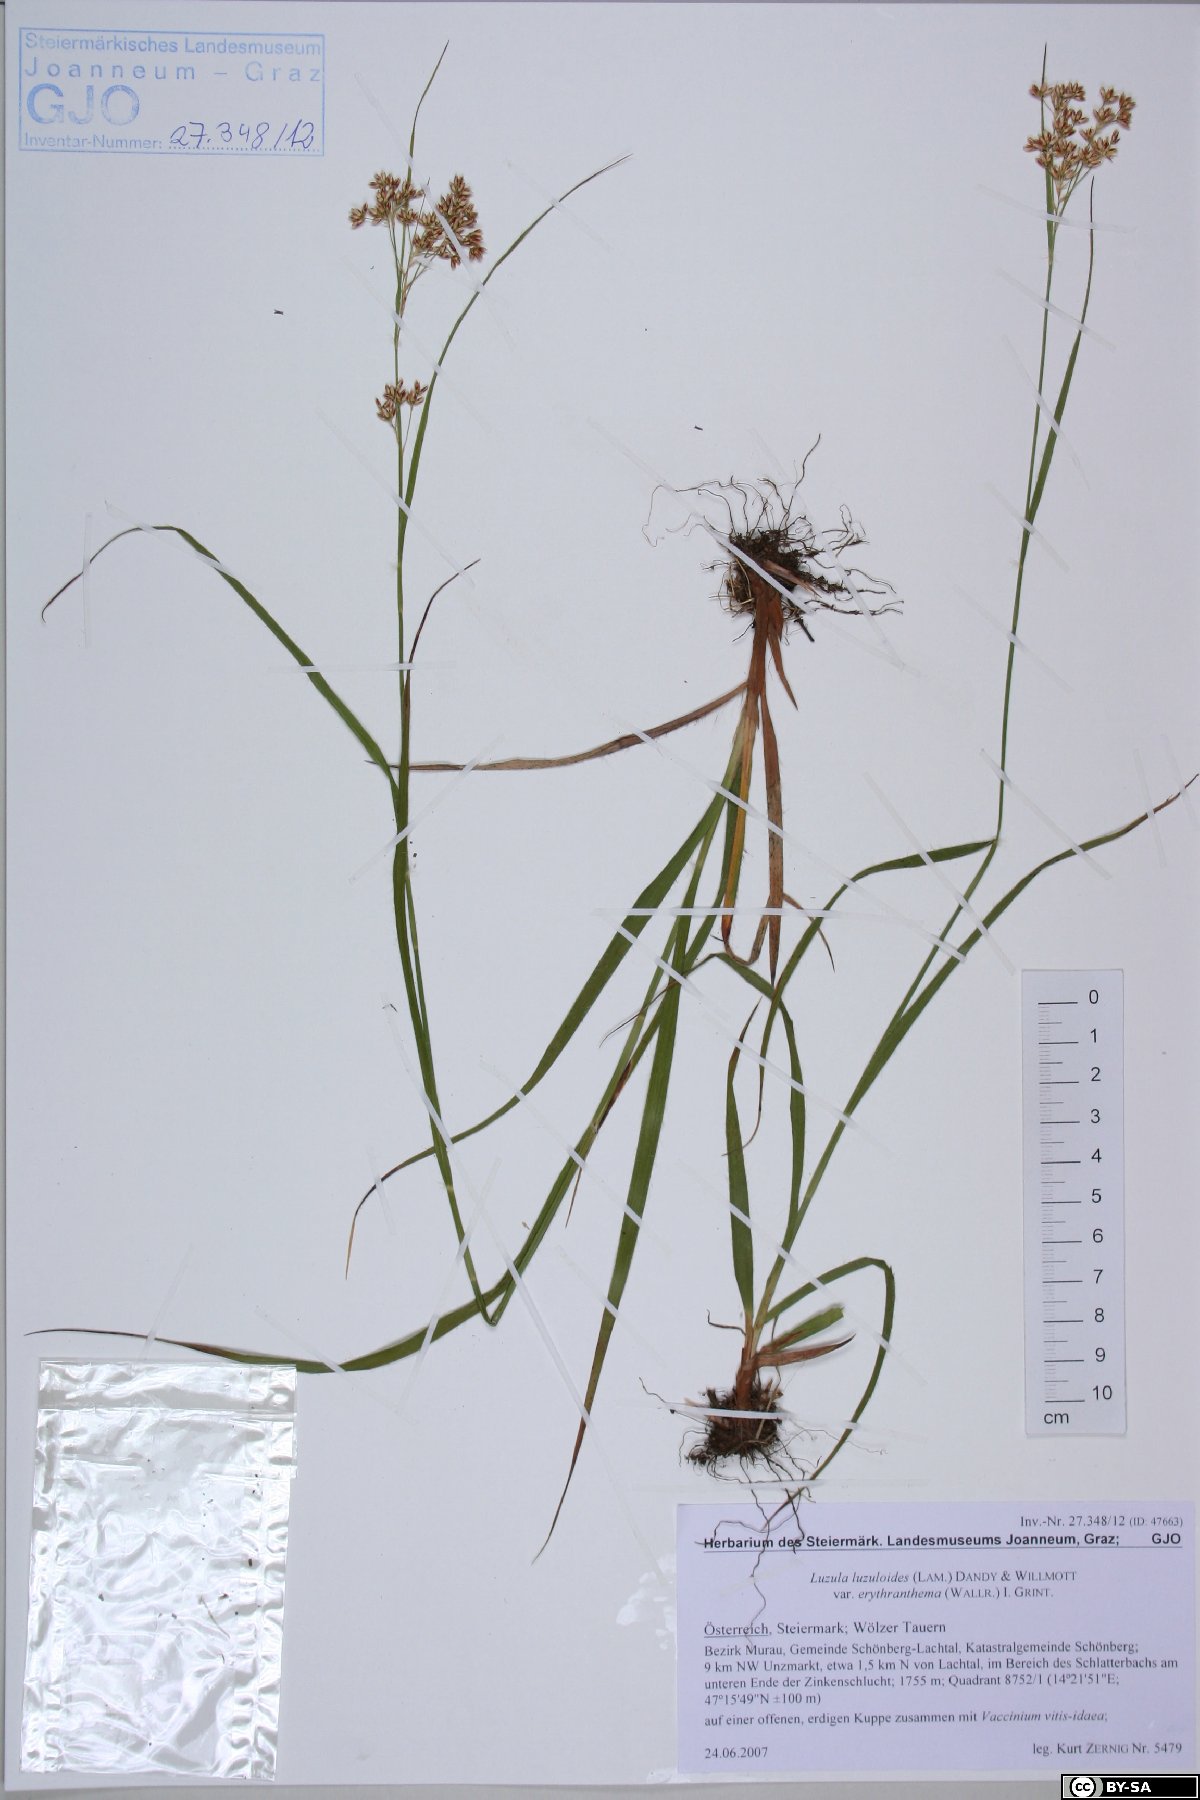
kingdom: Plantae
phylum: Tracheophyta
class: Liliopsida
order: Poales
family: Juncaceae
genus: Luzula
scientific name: Luzula luzuloides
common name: White wood-rush
